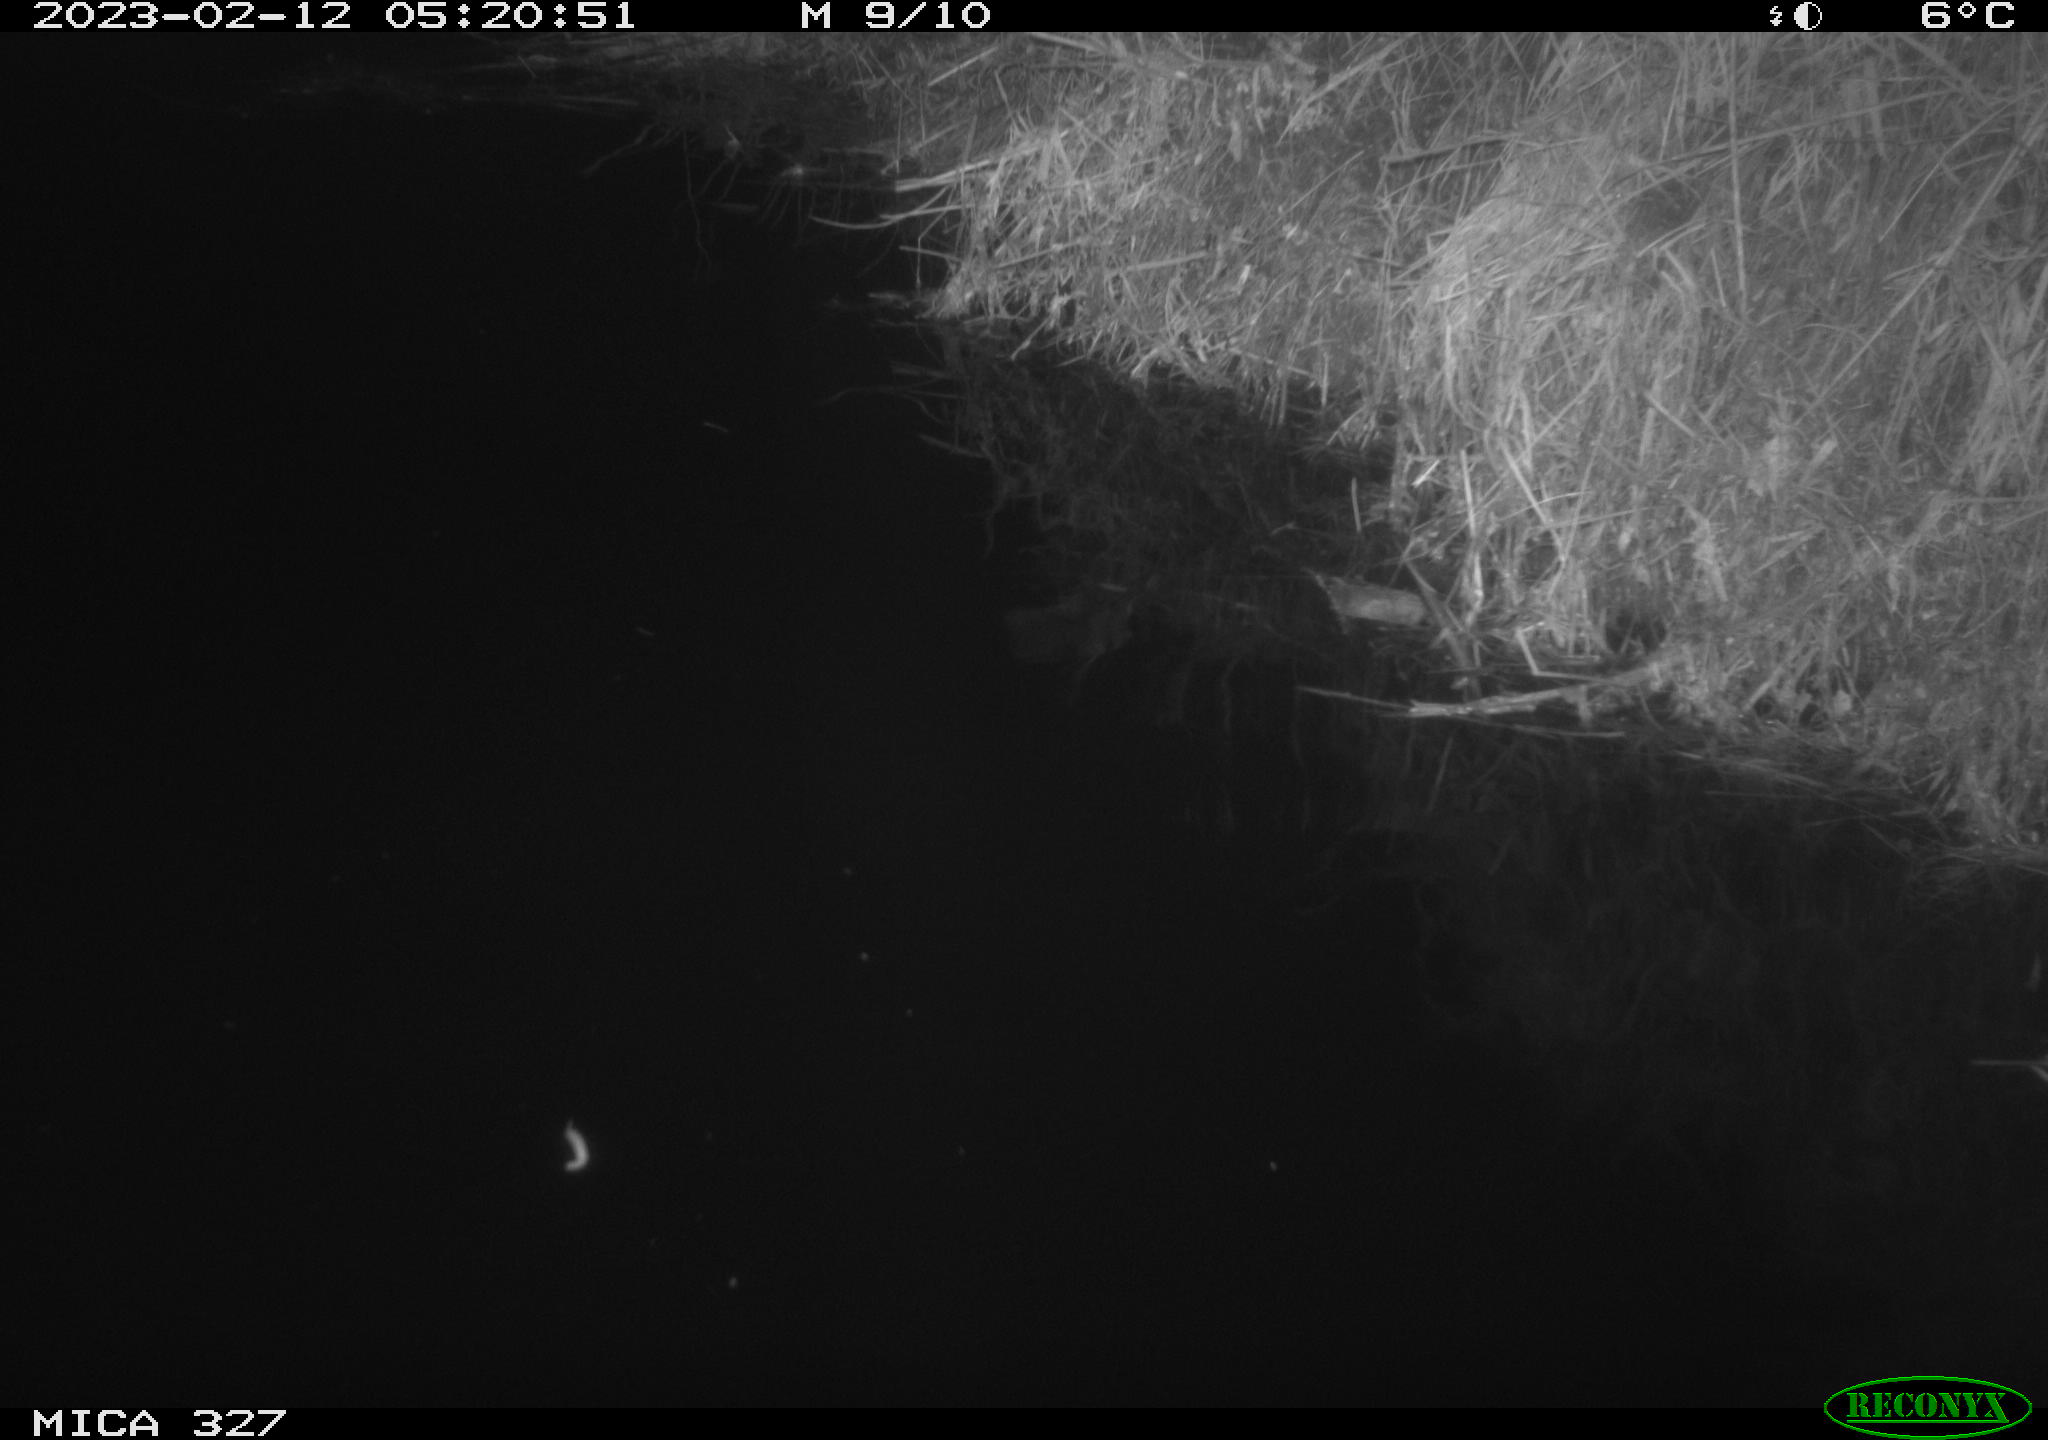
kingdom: Animalia
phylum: Chordata
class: Mammalia
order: Rodentia
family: Cricetidae
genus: Ondatra
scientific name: Ondatra zibethicus
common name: Muskrat
